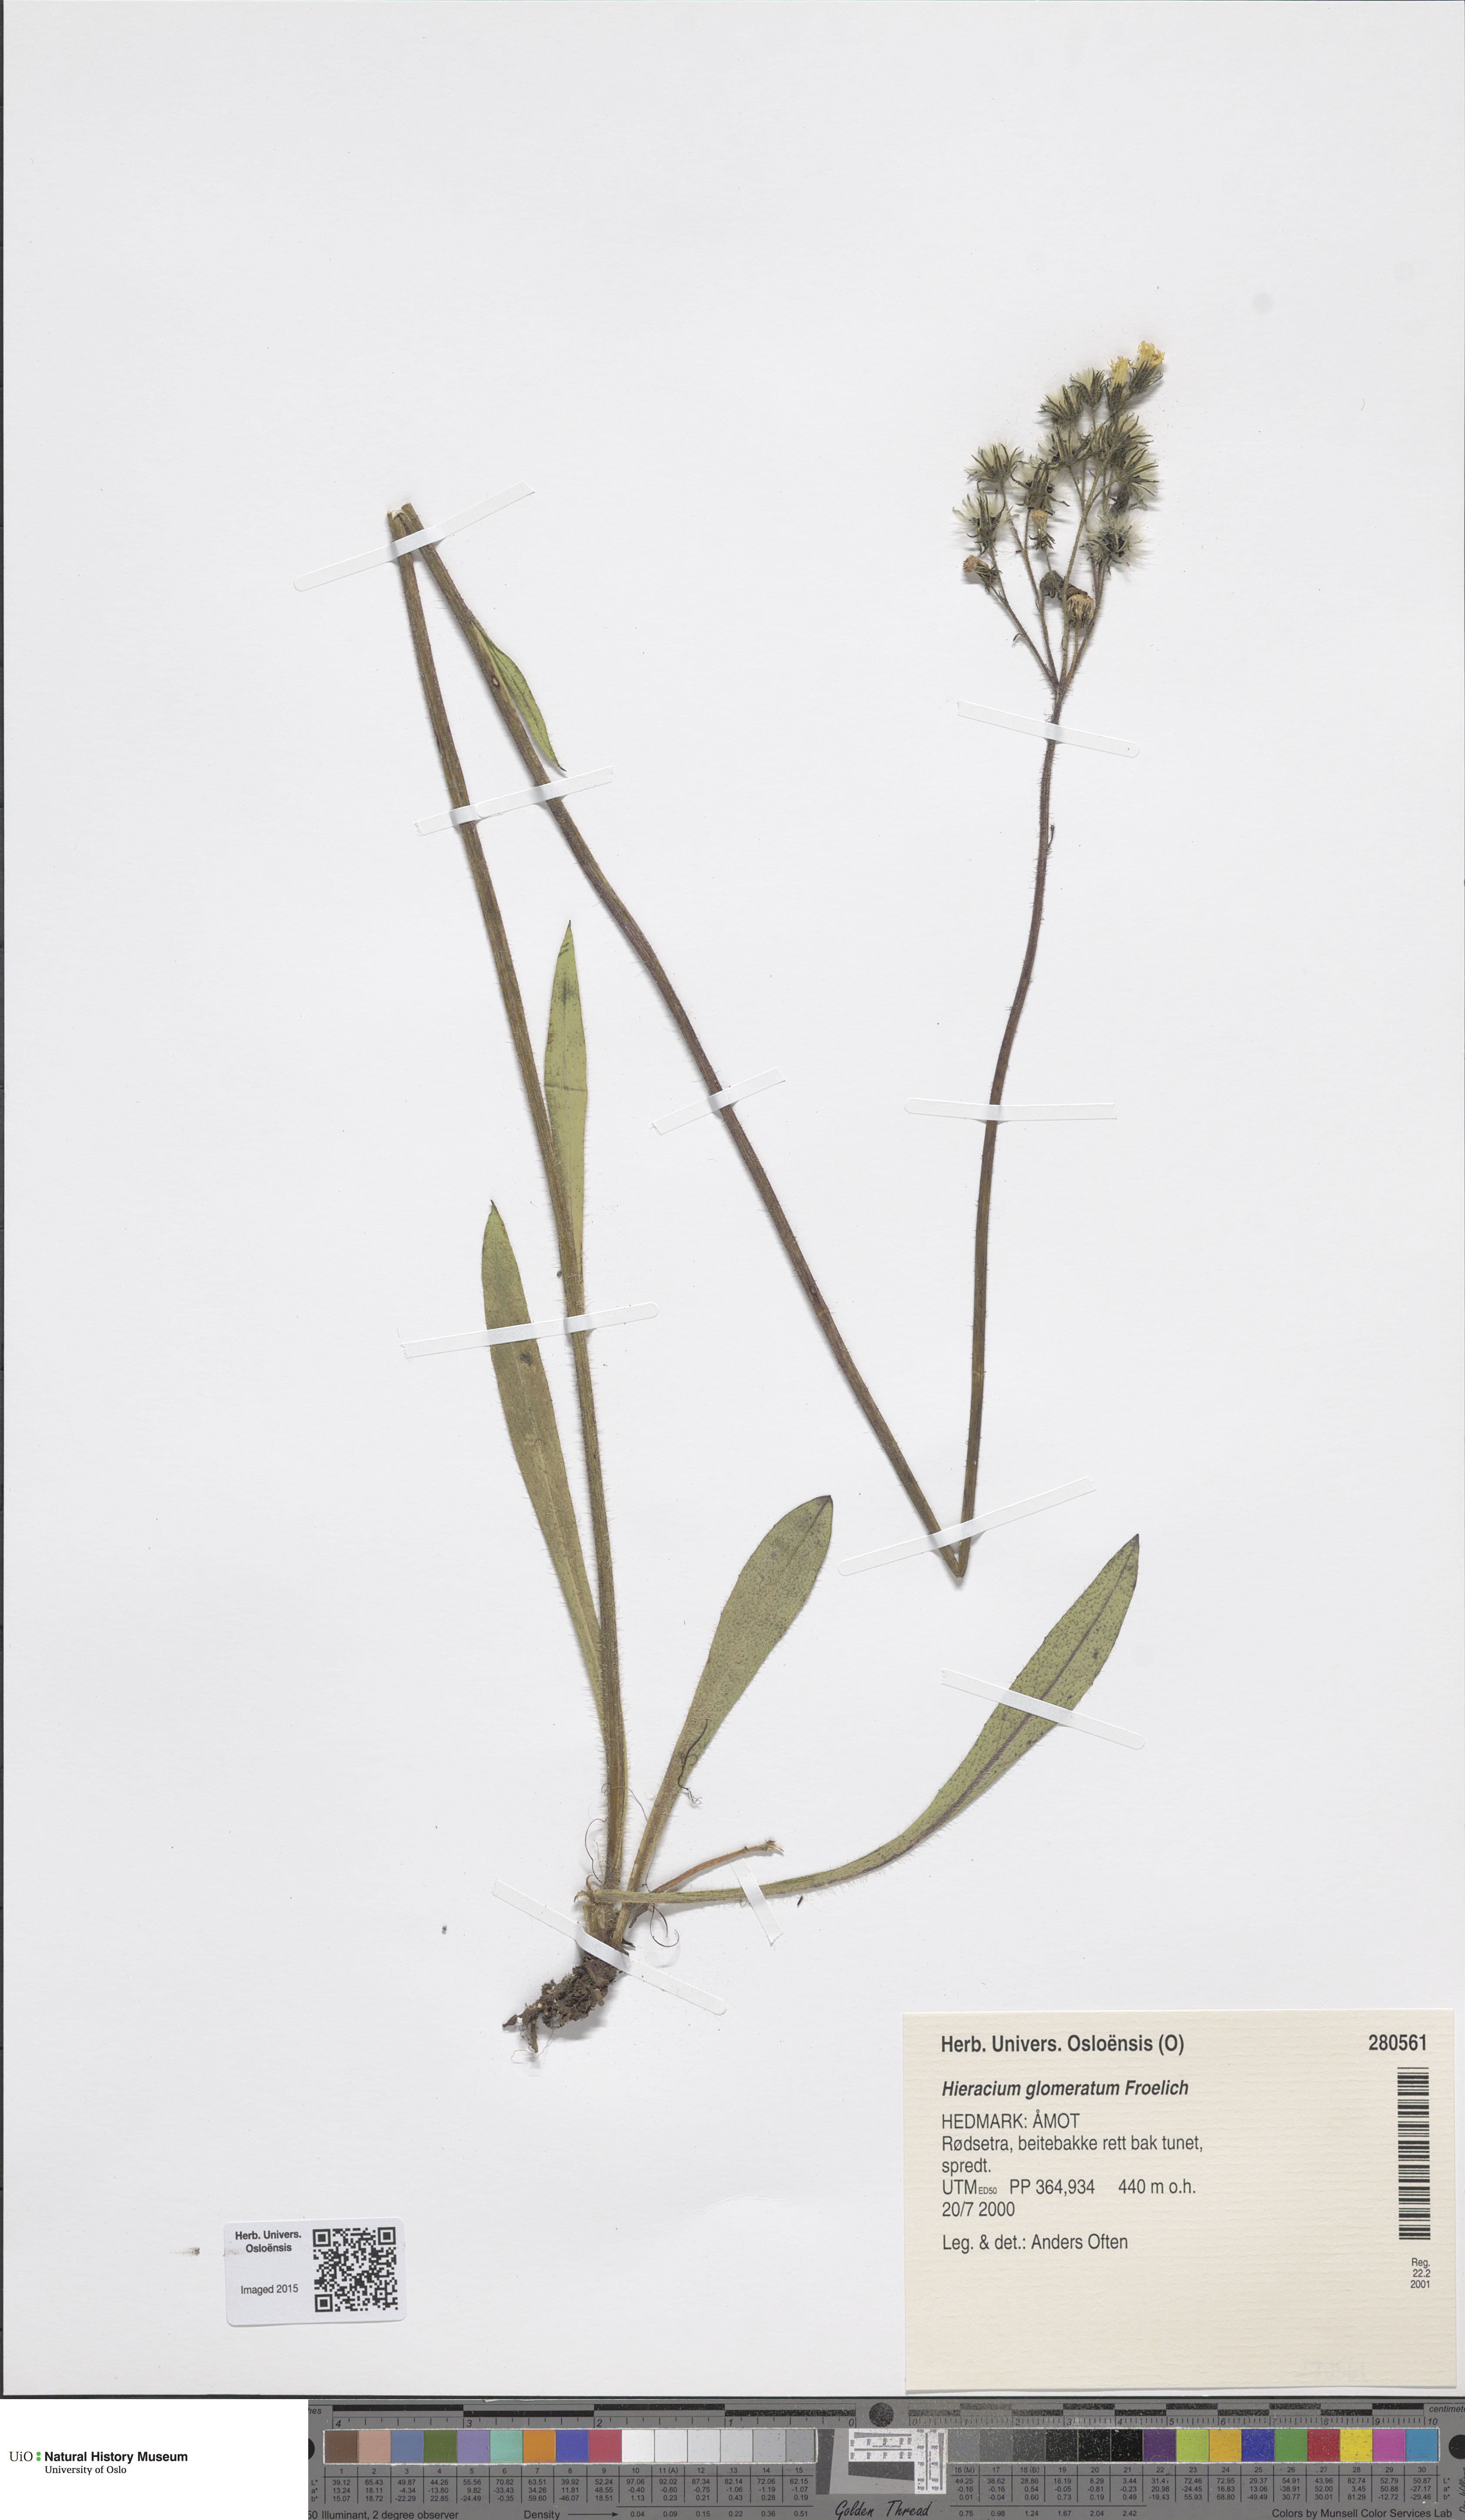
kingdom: Plantae
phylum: Tracheophyta
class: Magnoliopsida
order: Asterales
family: Asteraceae
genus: Pilosella
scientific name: Pilosella glomerata
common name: Queen devil hawkweed
